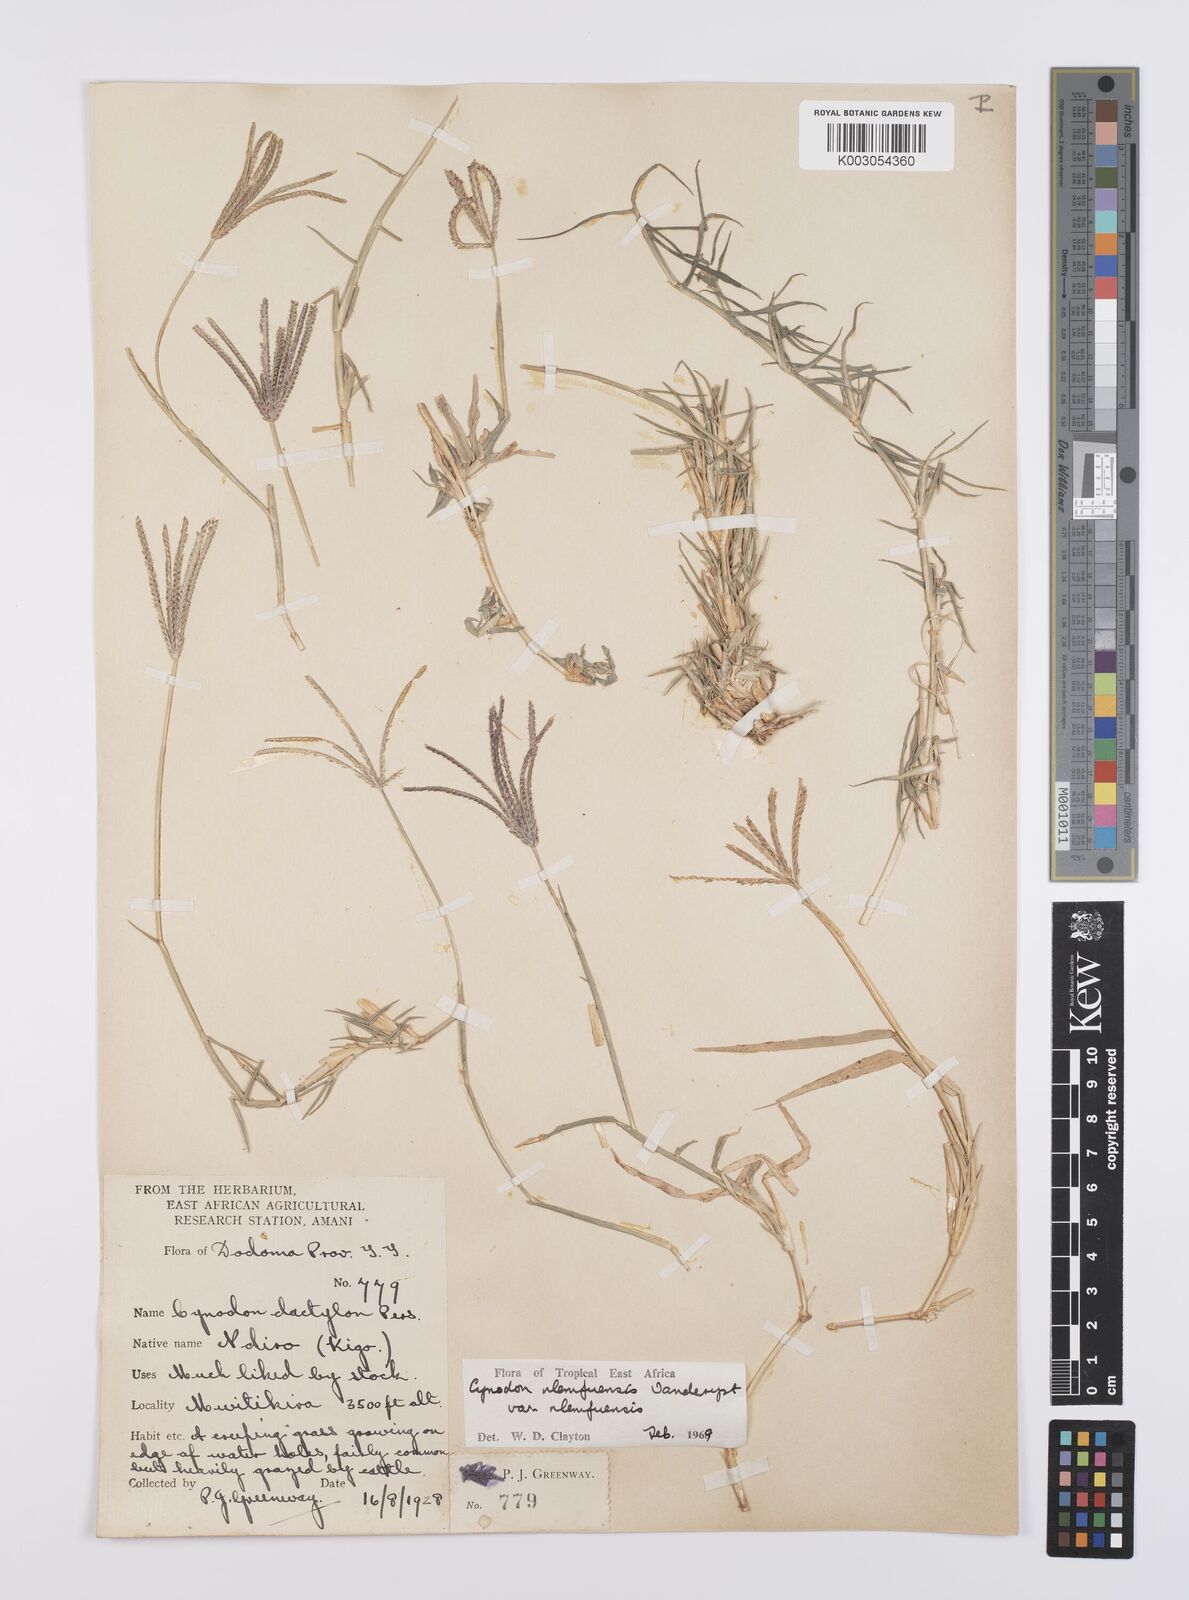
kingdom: Plantae
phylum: Tracheophyta
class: Liliopsida
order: Poales
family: Poaceae
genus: Cynodon
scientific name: Cynodon nlemfuensis
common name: African bermudagrass
